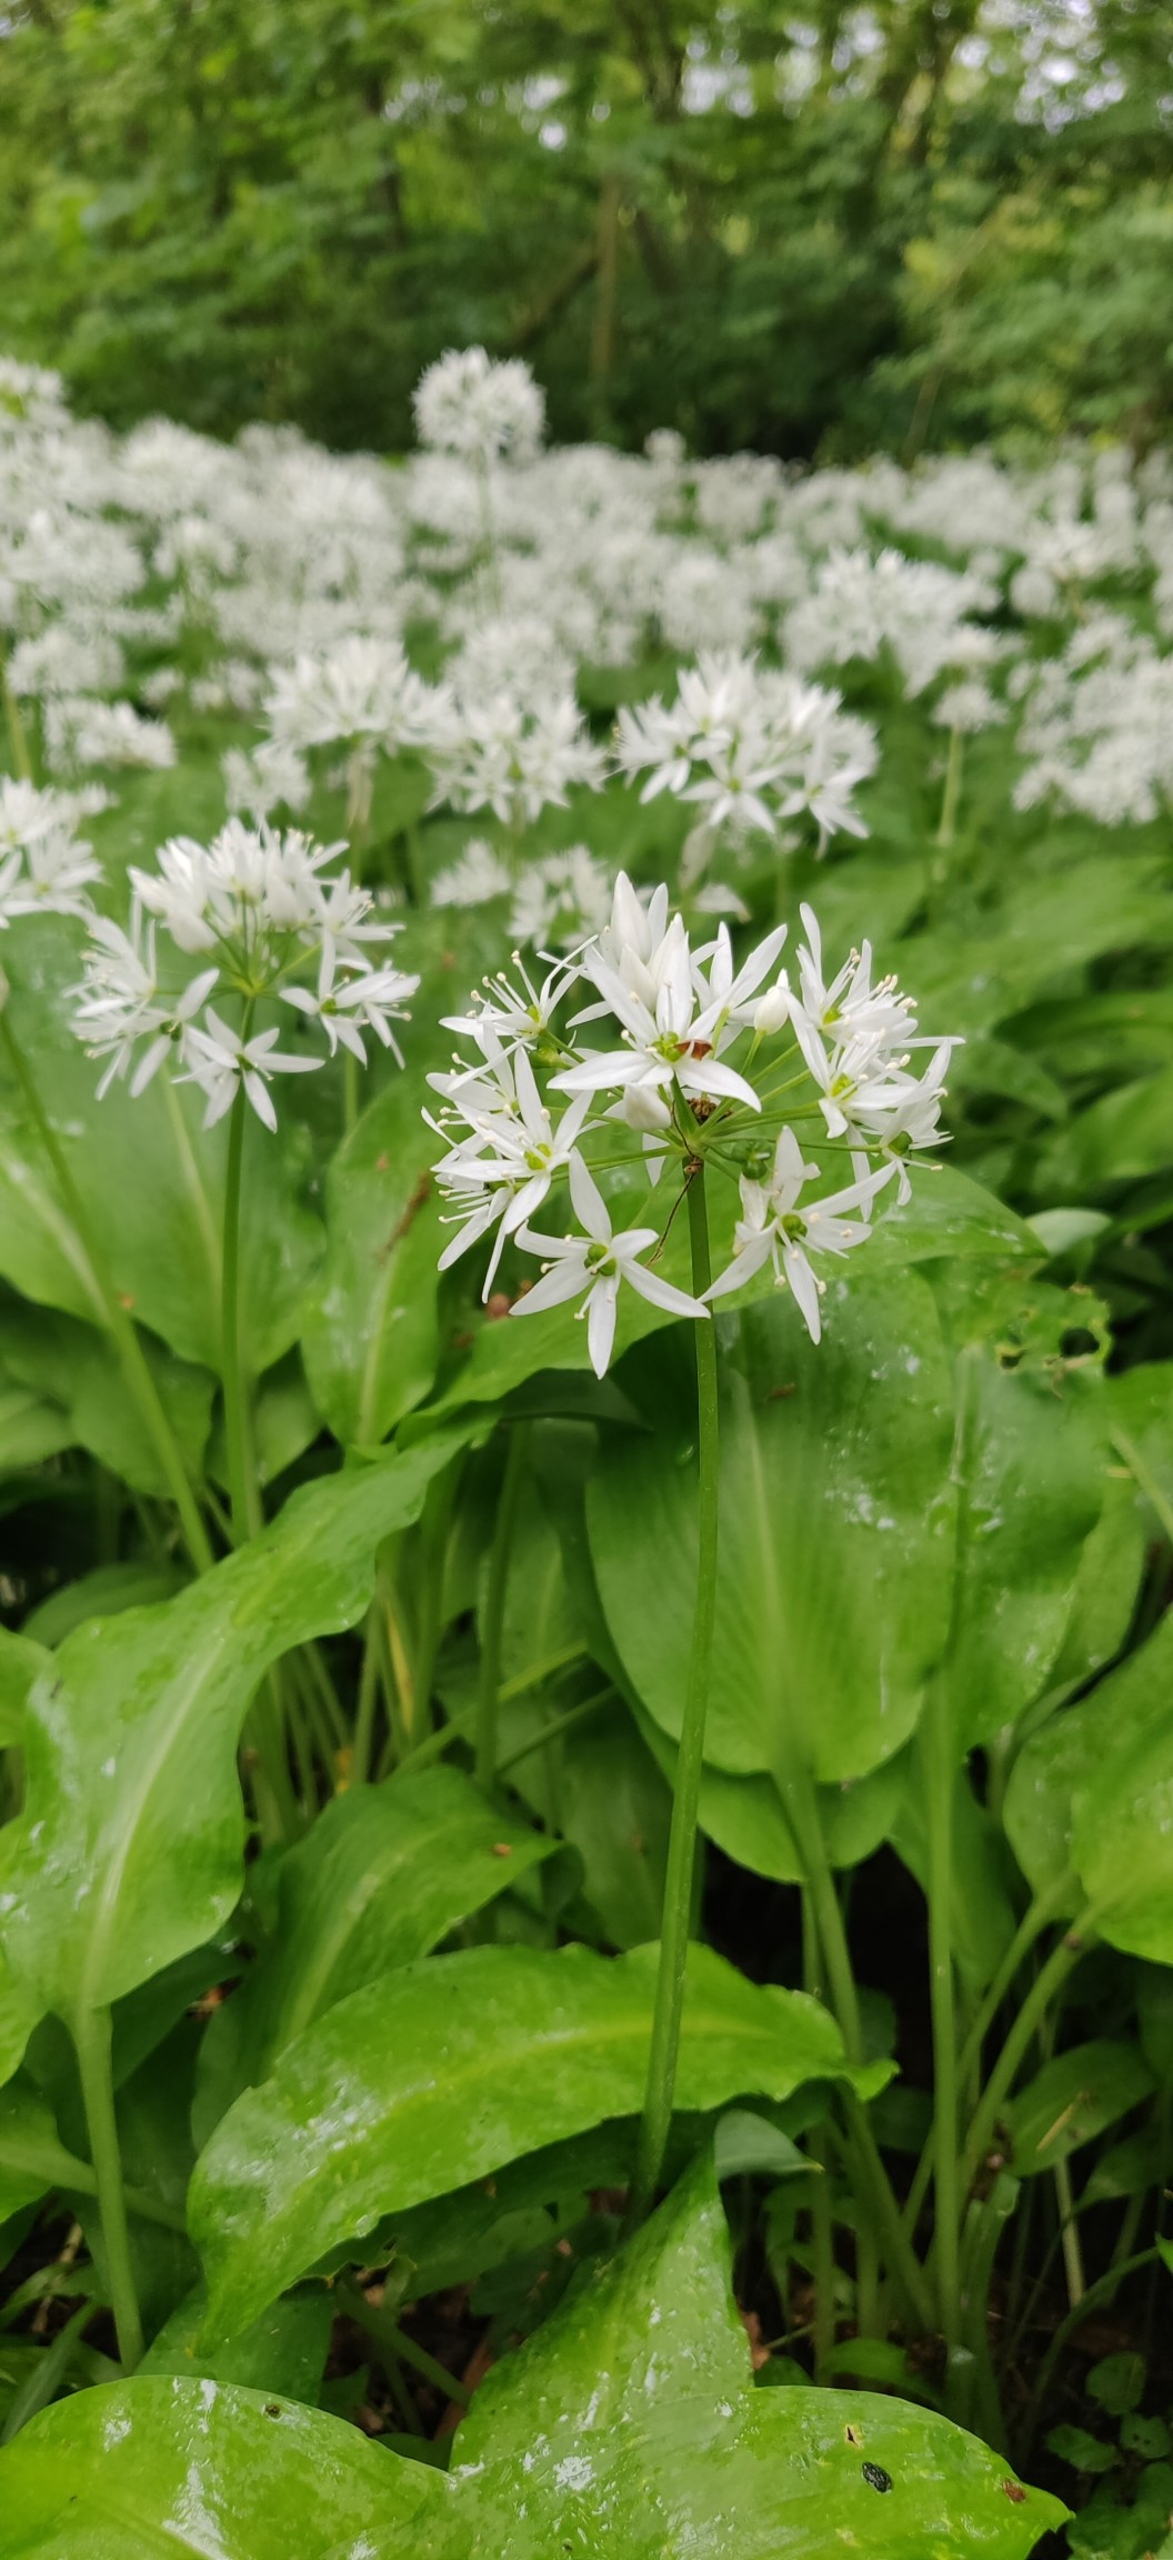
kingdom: Plantae
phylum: Tracheophyta
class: Liliopsida
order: Asparagales
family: Amaryllidaceae
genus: Allium
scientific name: Allium ursinum
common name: Rams-løg
